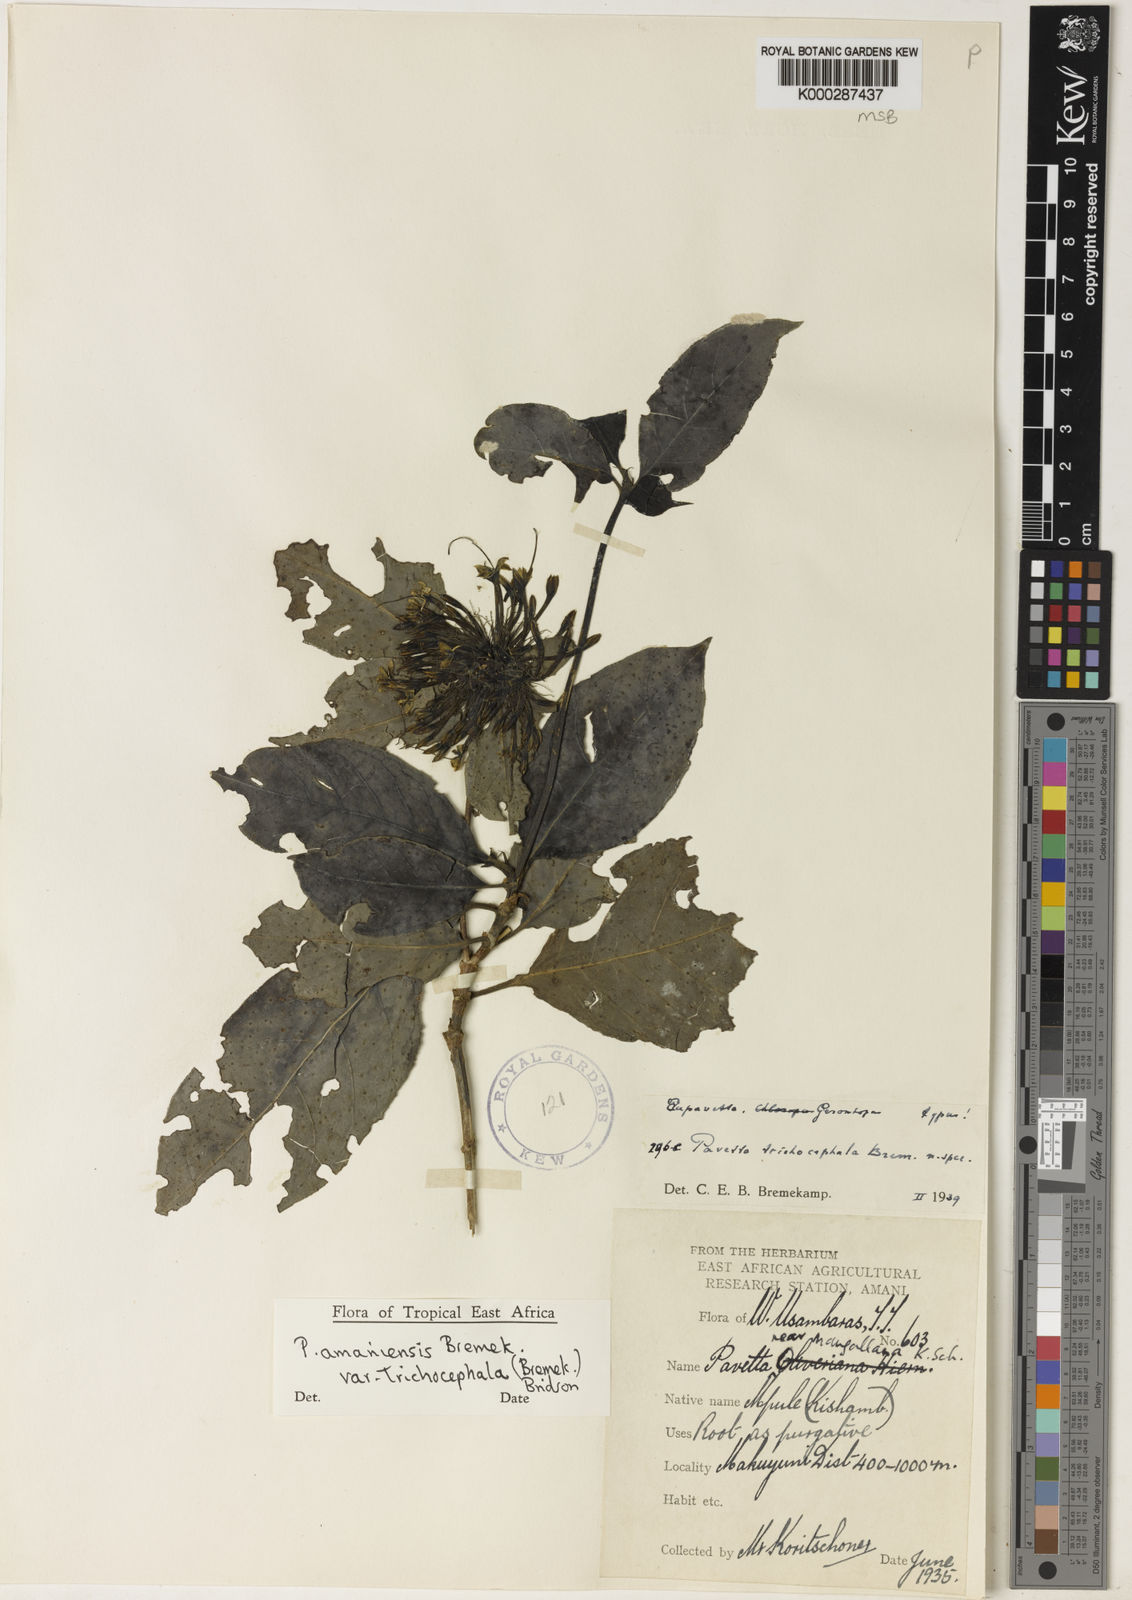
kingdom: Plantae
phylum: Tracheophyta
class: Magnoliopsida
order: Gentianales
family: Rubiaceae
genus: Pavetta
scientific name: Pavetta amaniensis
